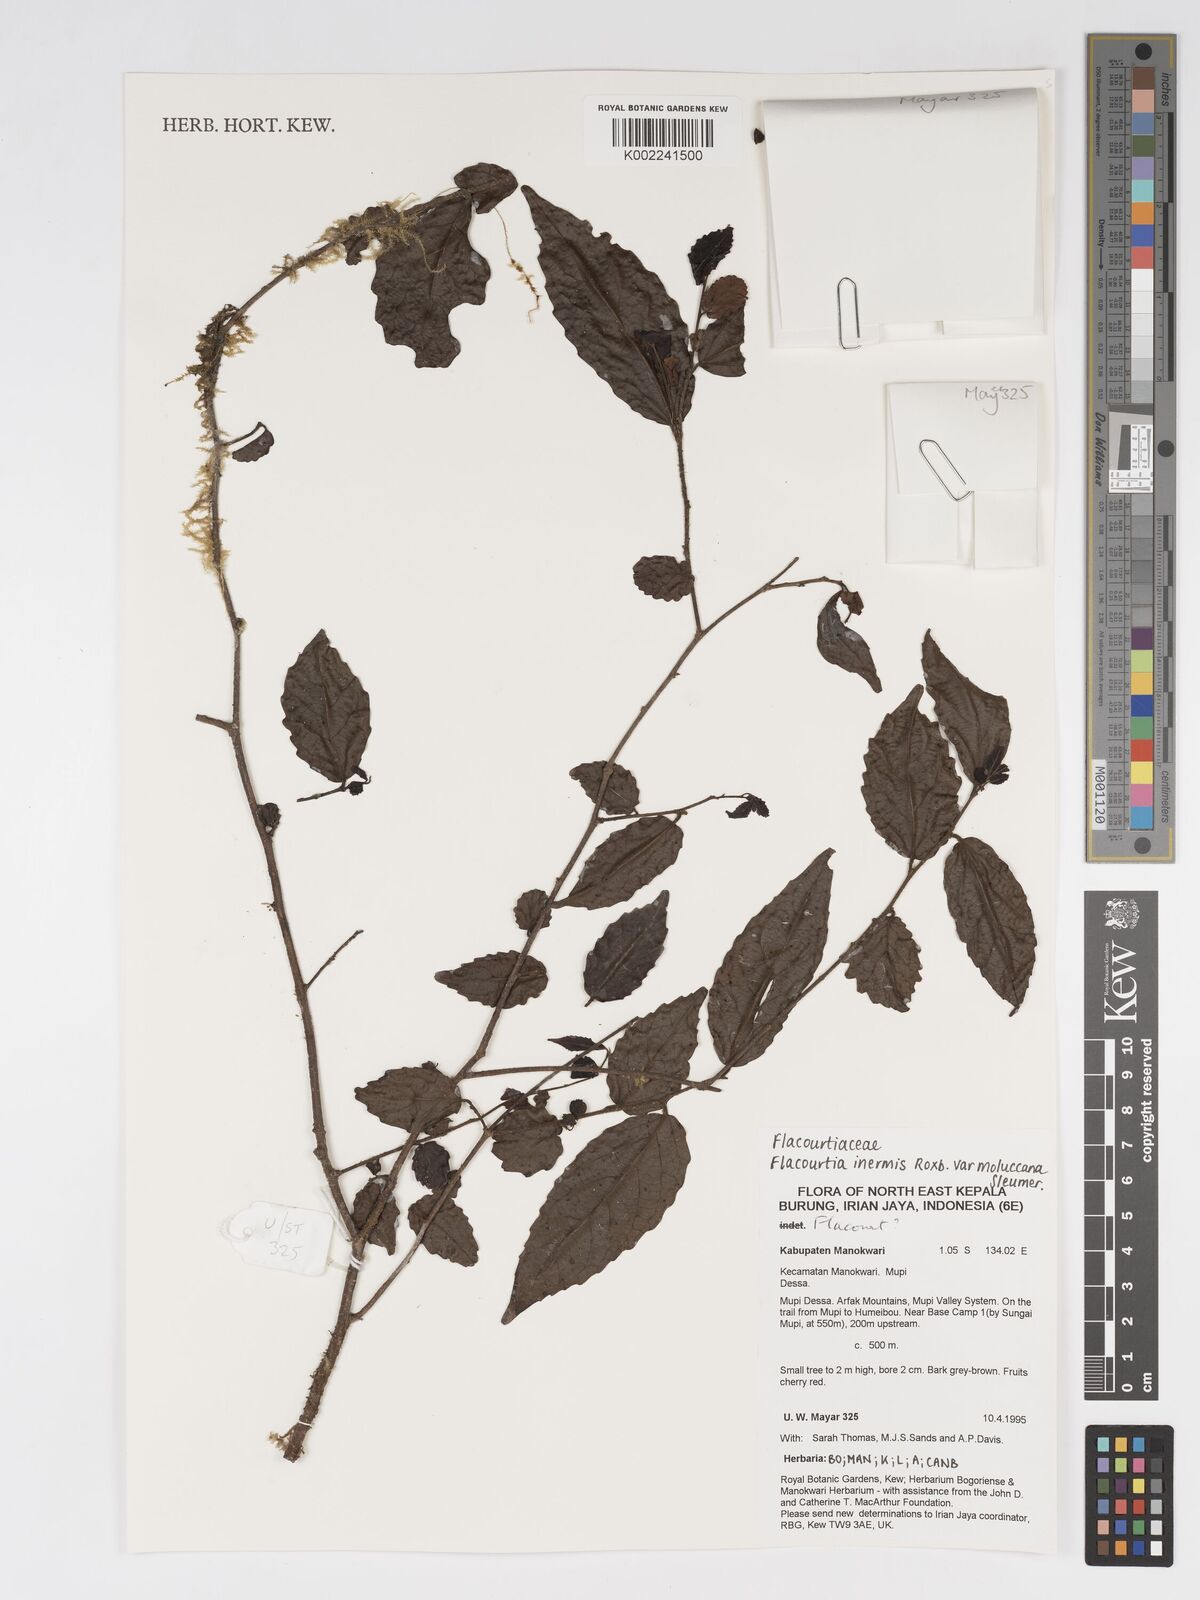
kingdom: Plantae
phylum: Tracheophyta
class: Magnoliopsida
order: Malpighiales
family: Salicaceae
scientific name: Salicaceae
